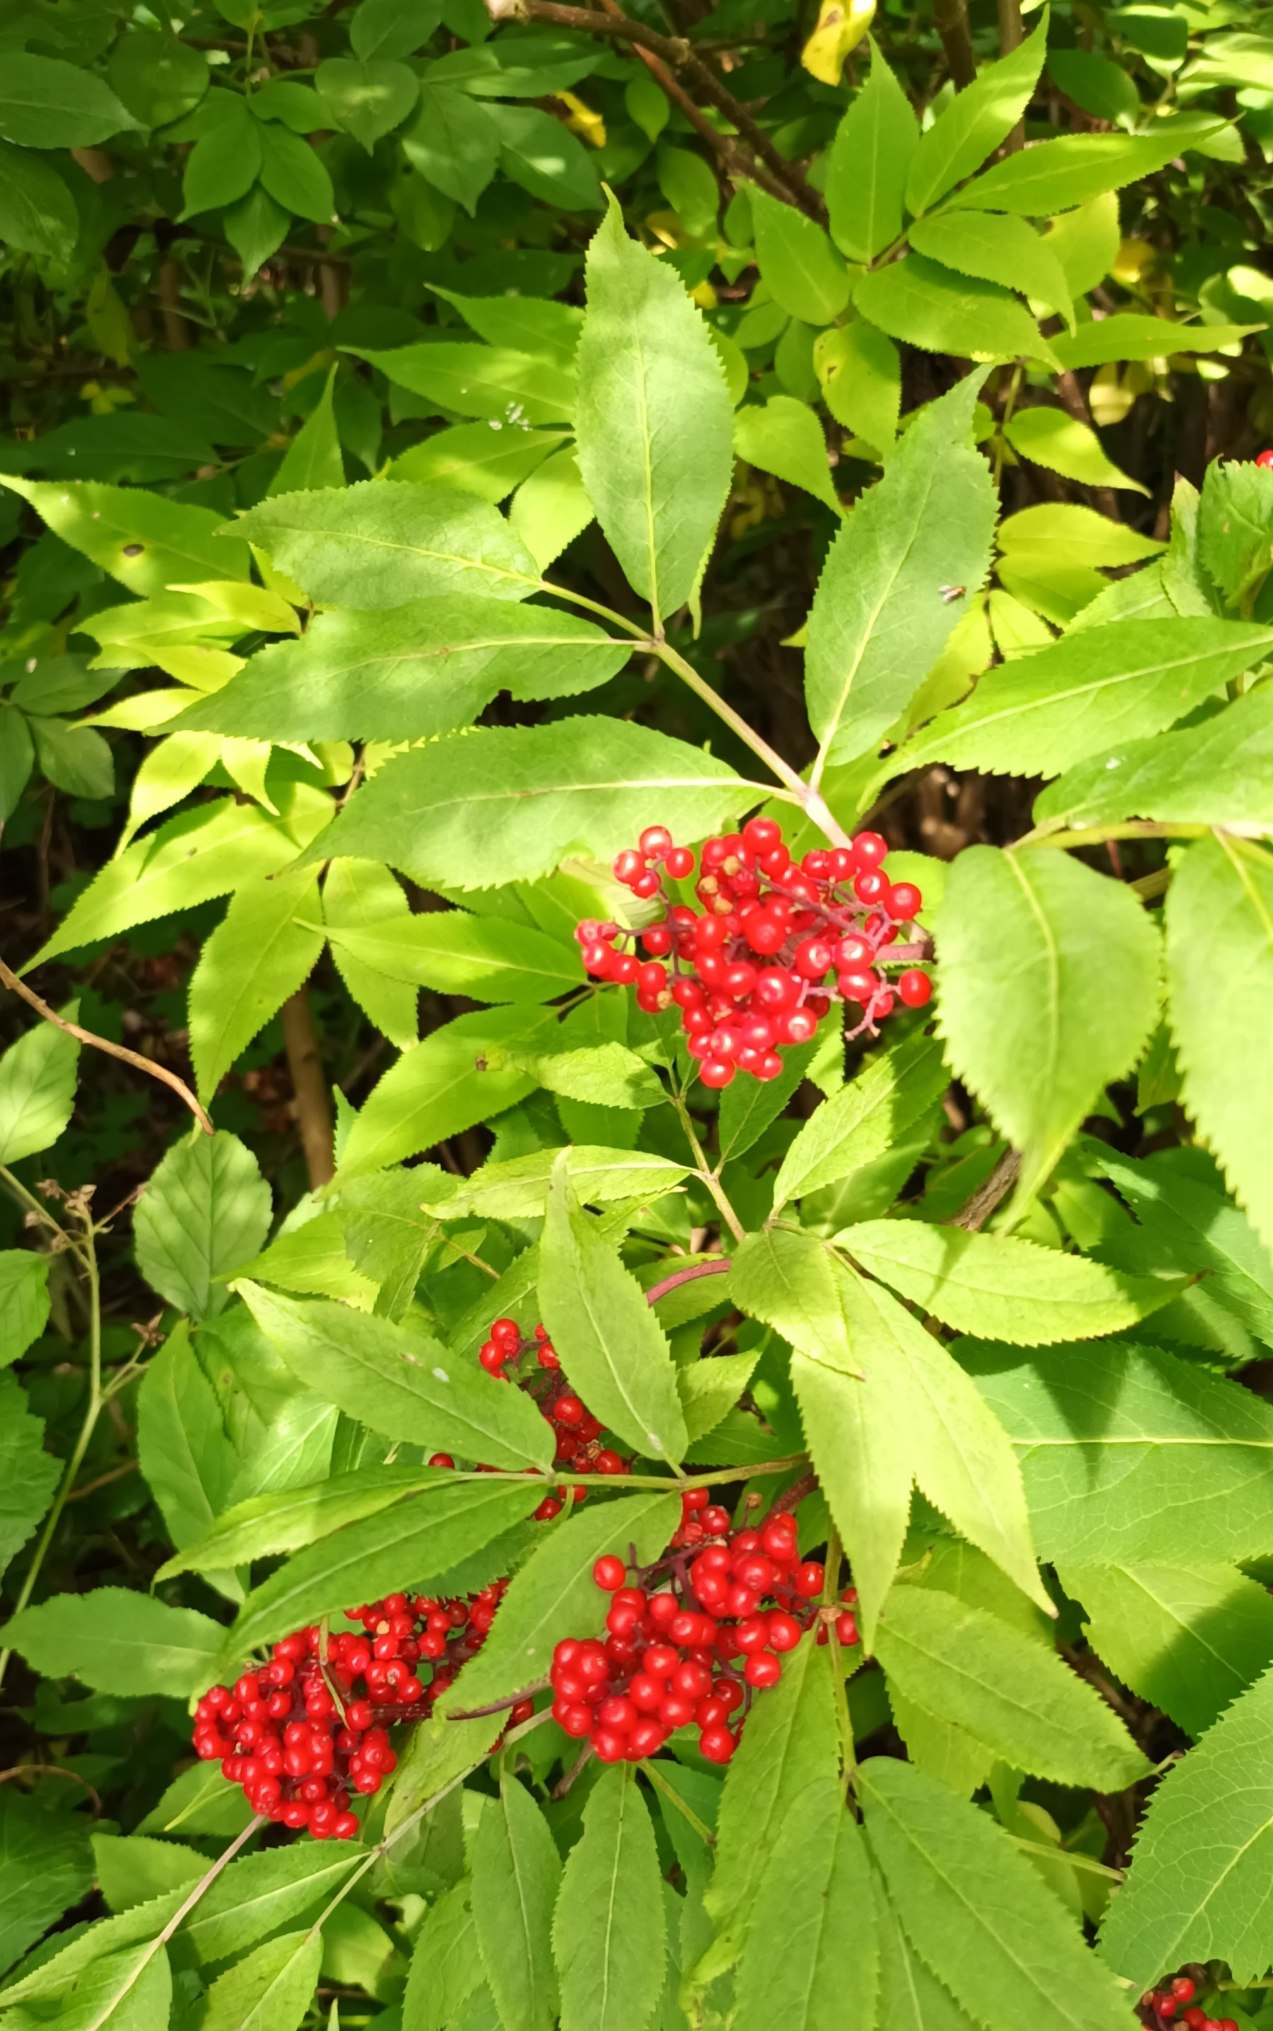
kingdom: Plantae
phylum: Tracheophyta
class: Magnoliopsida
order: Dipsacales
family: Viburnaceae
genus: Sambucus
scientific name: Sambucus racemosa
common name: Drue-hyld
